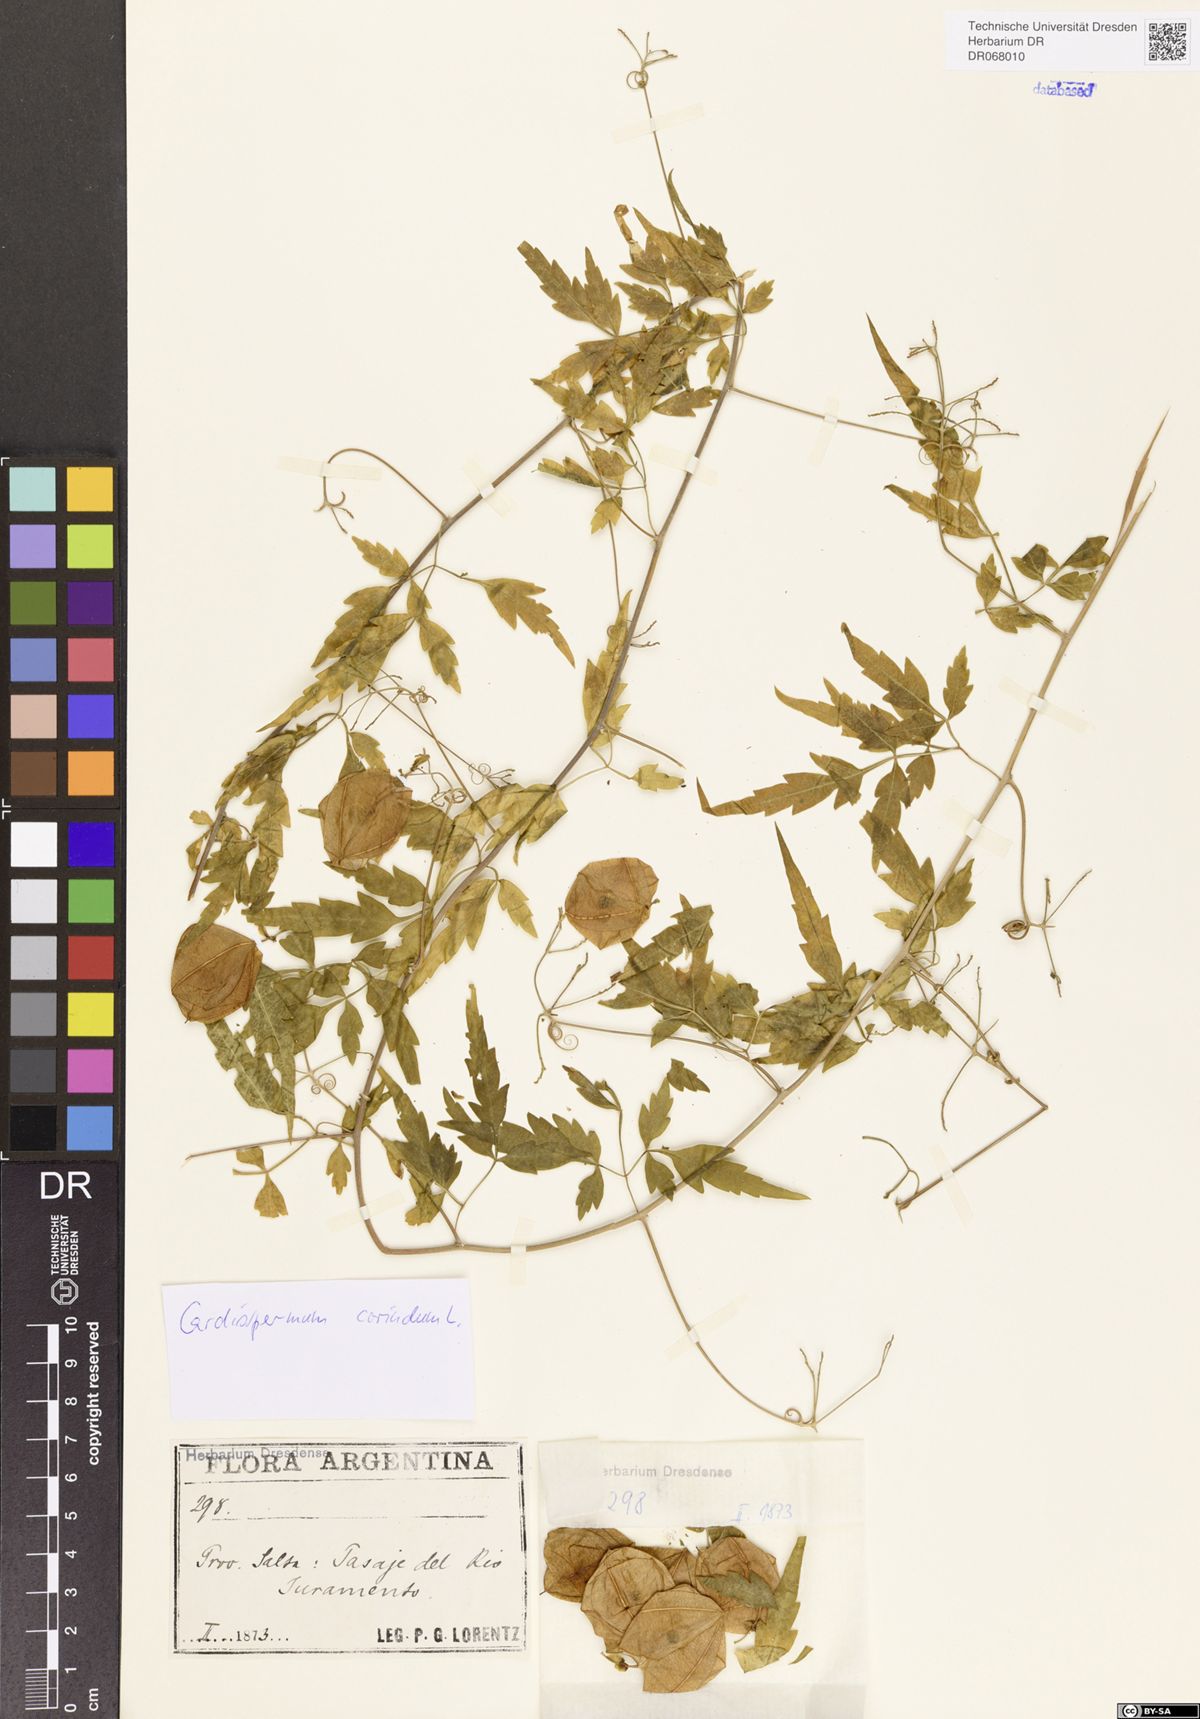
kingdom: Plantae
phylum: Tracheophyta
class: Magnoliopsida
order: Sapindales
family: Sapindaceae
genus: Cardiospermum
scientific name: Cardiospermum corindum
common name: Faux persil
